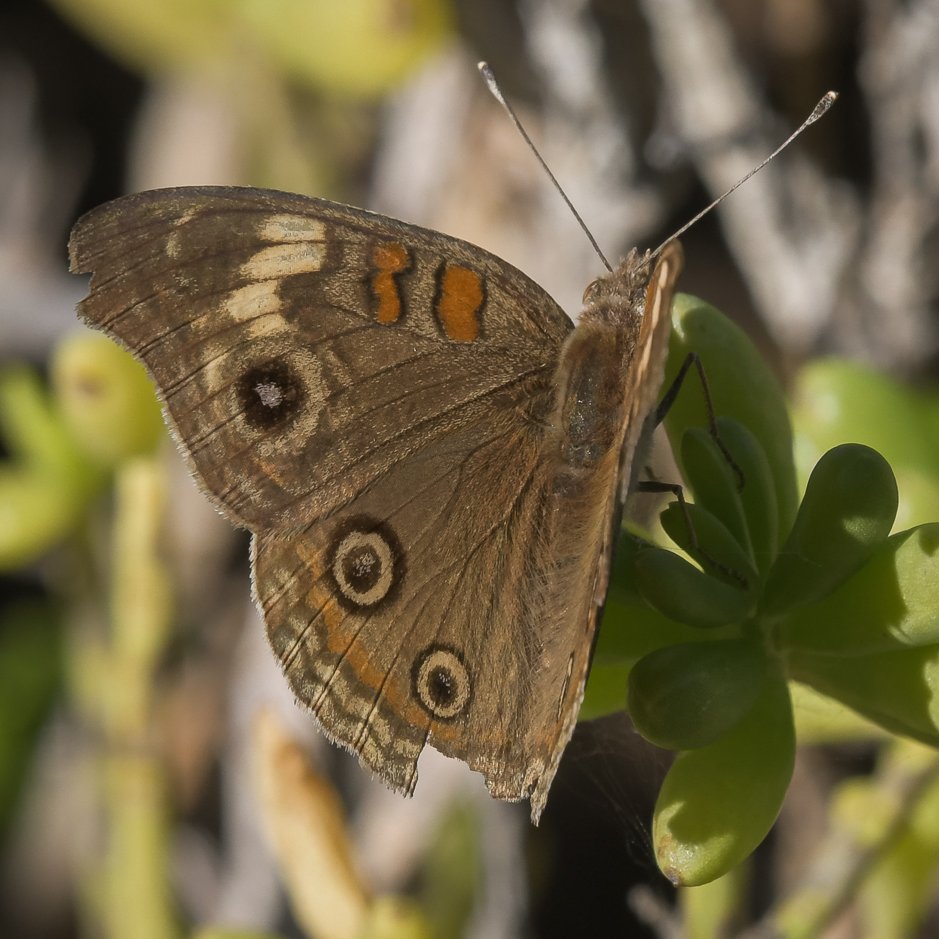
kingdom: Animalia
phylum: Arthropoda
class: Insecta
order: Lepidoptera
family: Nymphalidae
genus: Junonia
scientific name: Junonia
